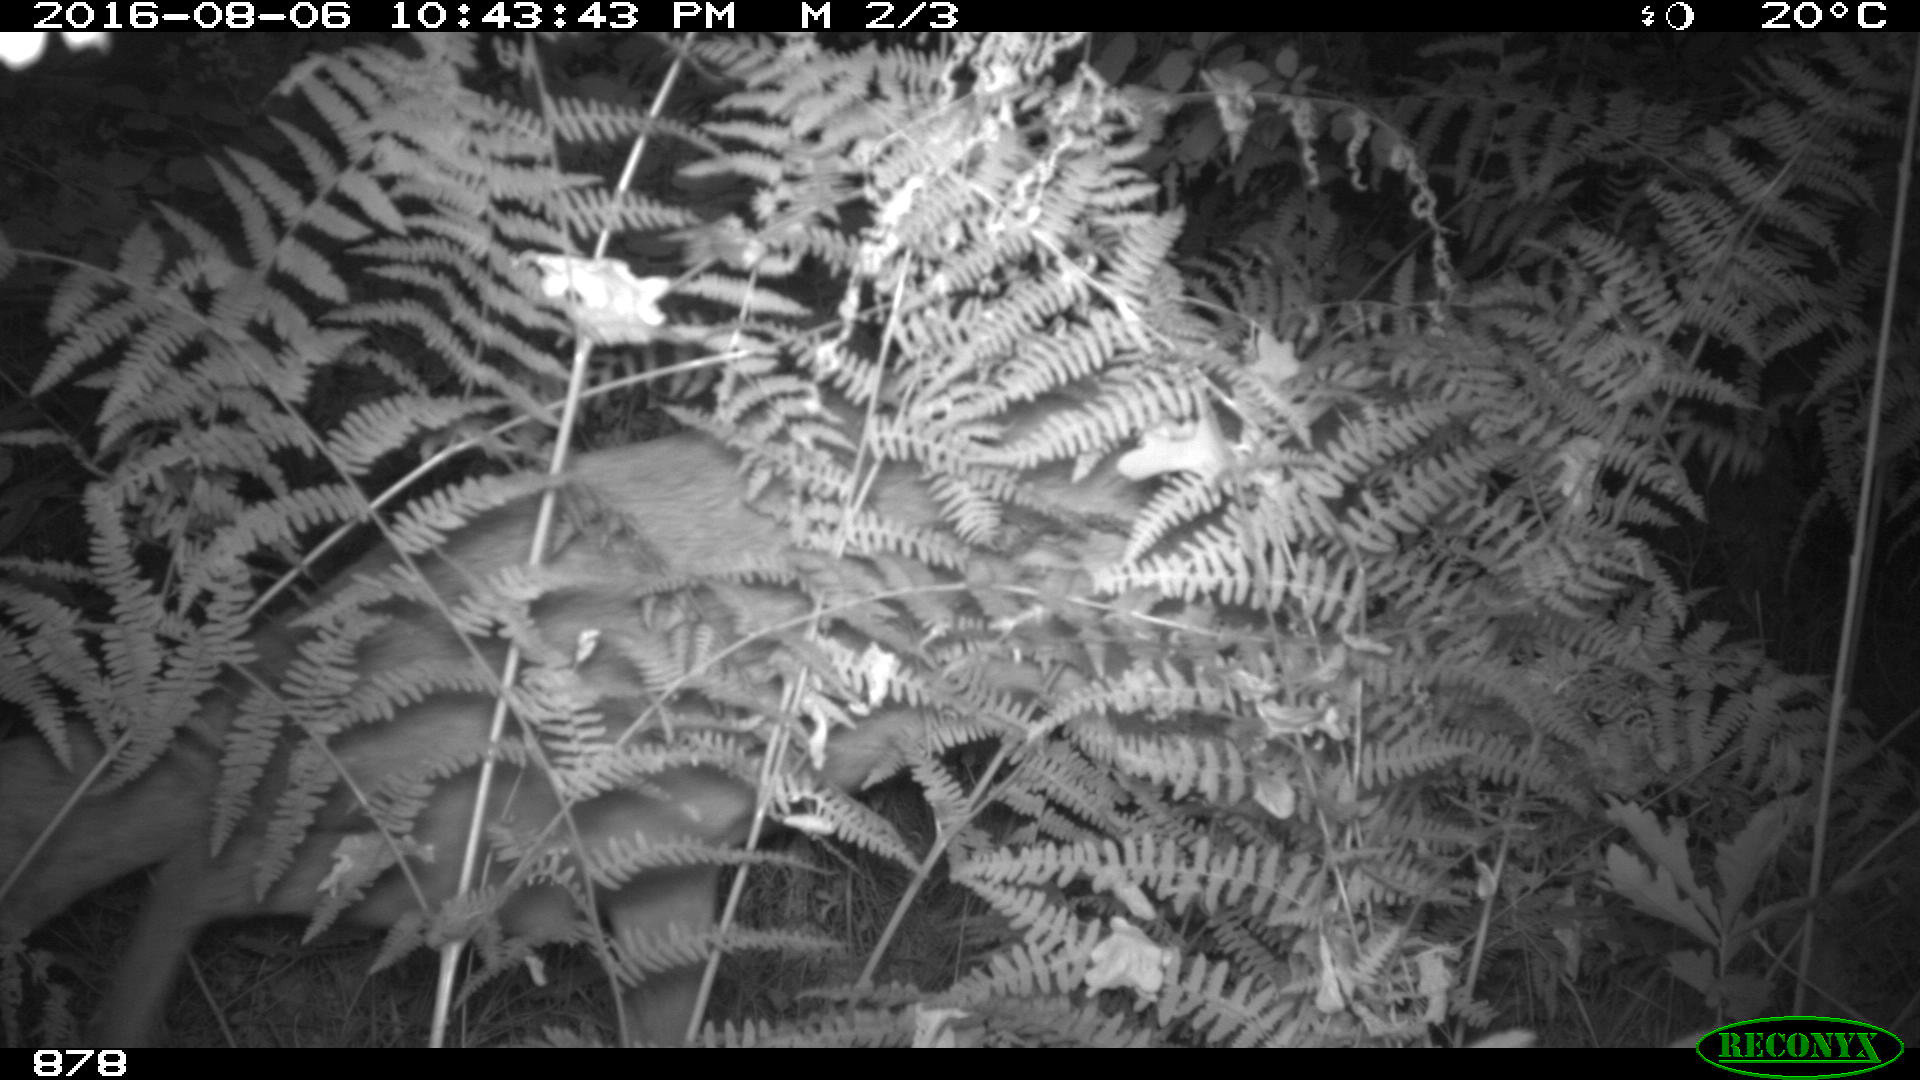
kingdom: Animalia
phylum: Chordata
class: Mammalia
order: Artiodactyla
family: Cervidae
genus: Capreolus
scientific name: Capreolus capreolus
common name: Western roe deer
